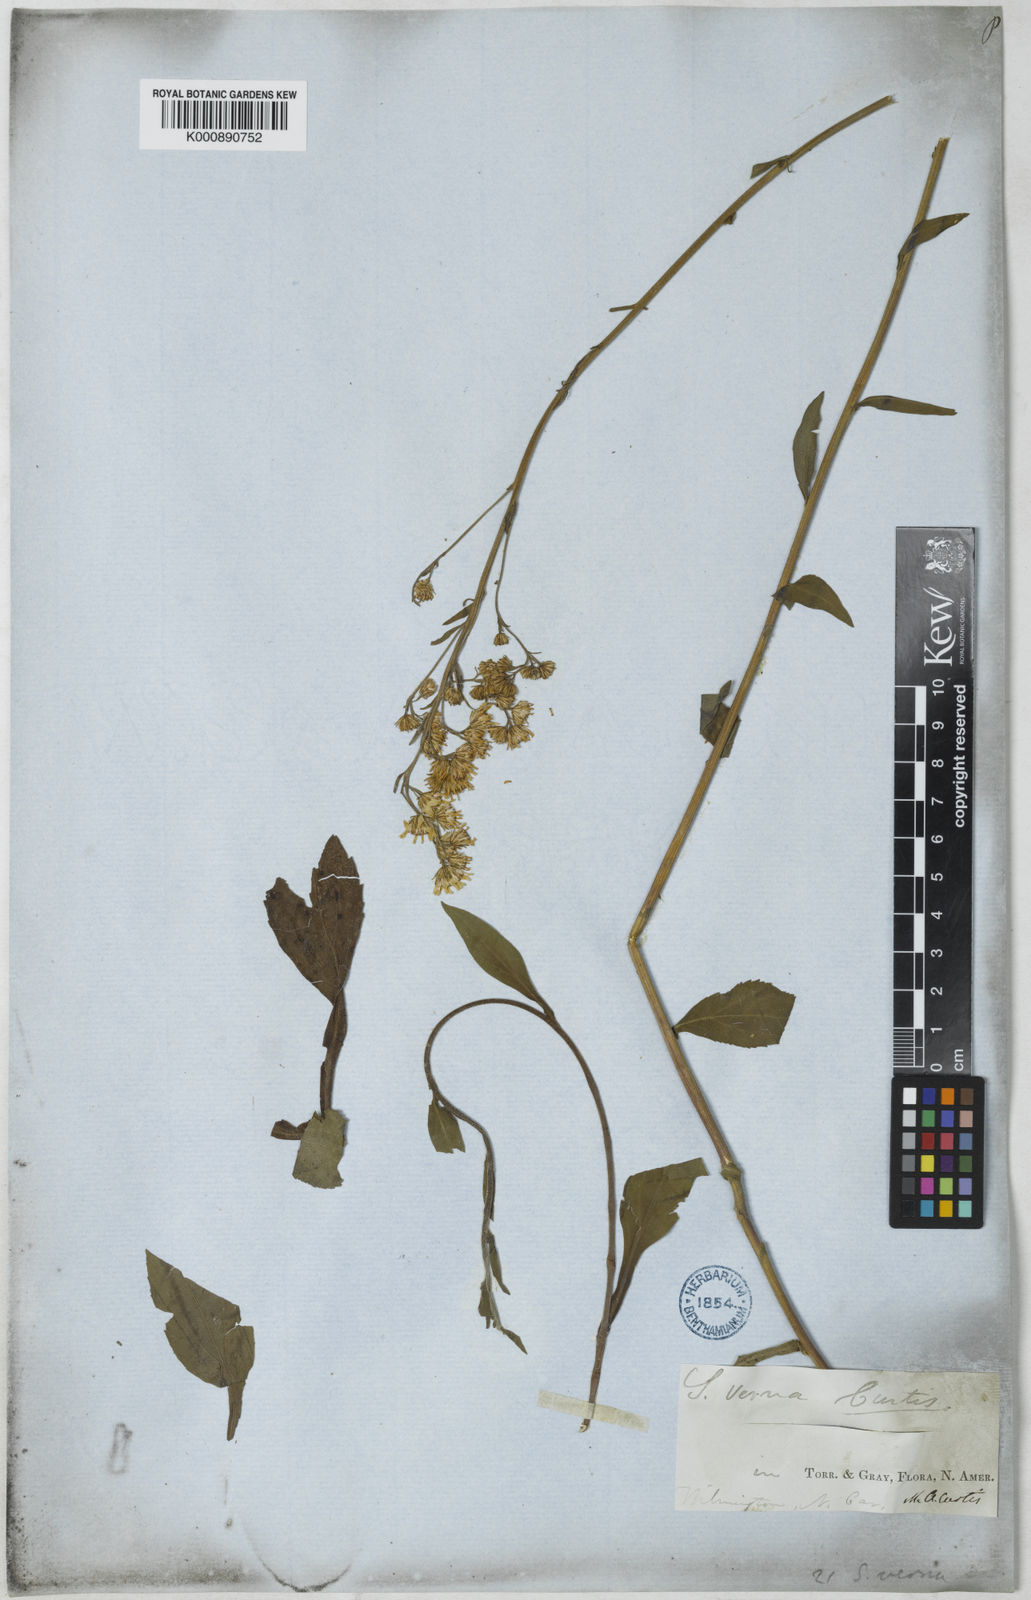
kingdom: Plantae
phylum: Tracheophyta
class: Magnoliopsida
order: Asterales
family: Asteraceae
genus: Solidago
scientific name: Solidago verna
